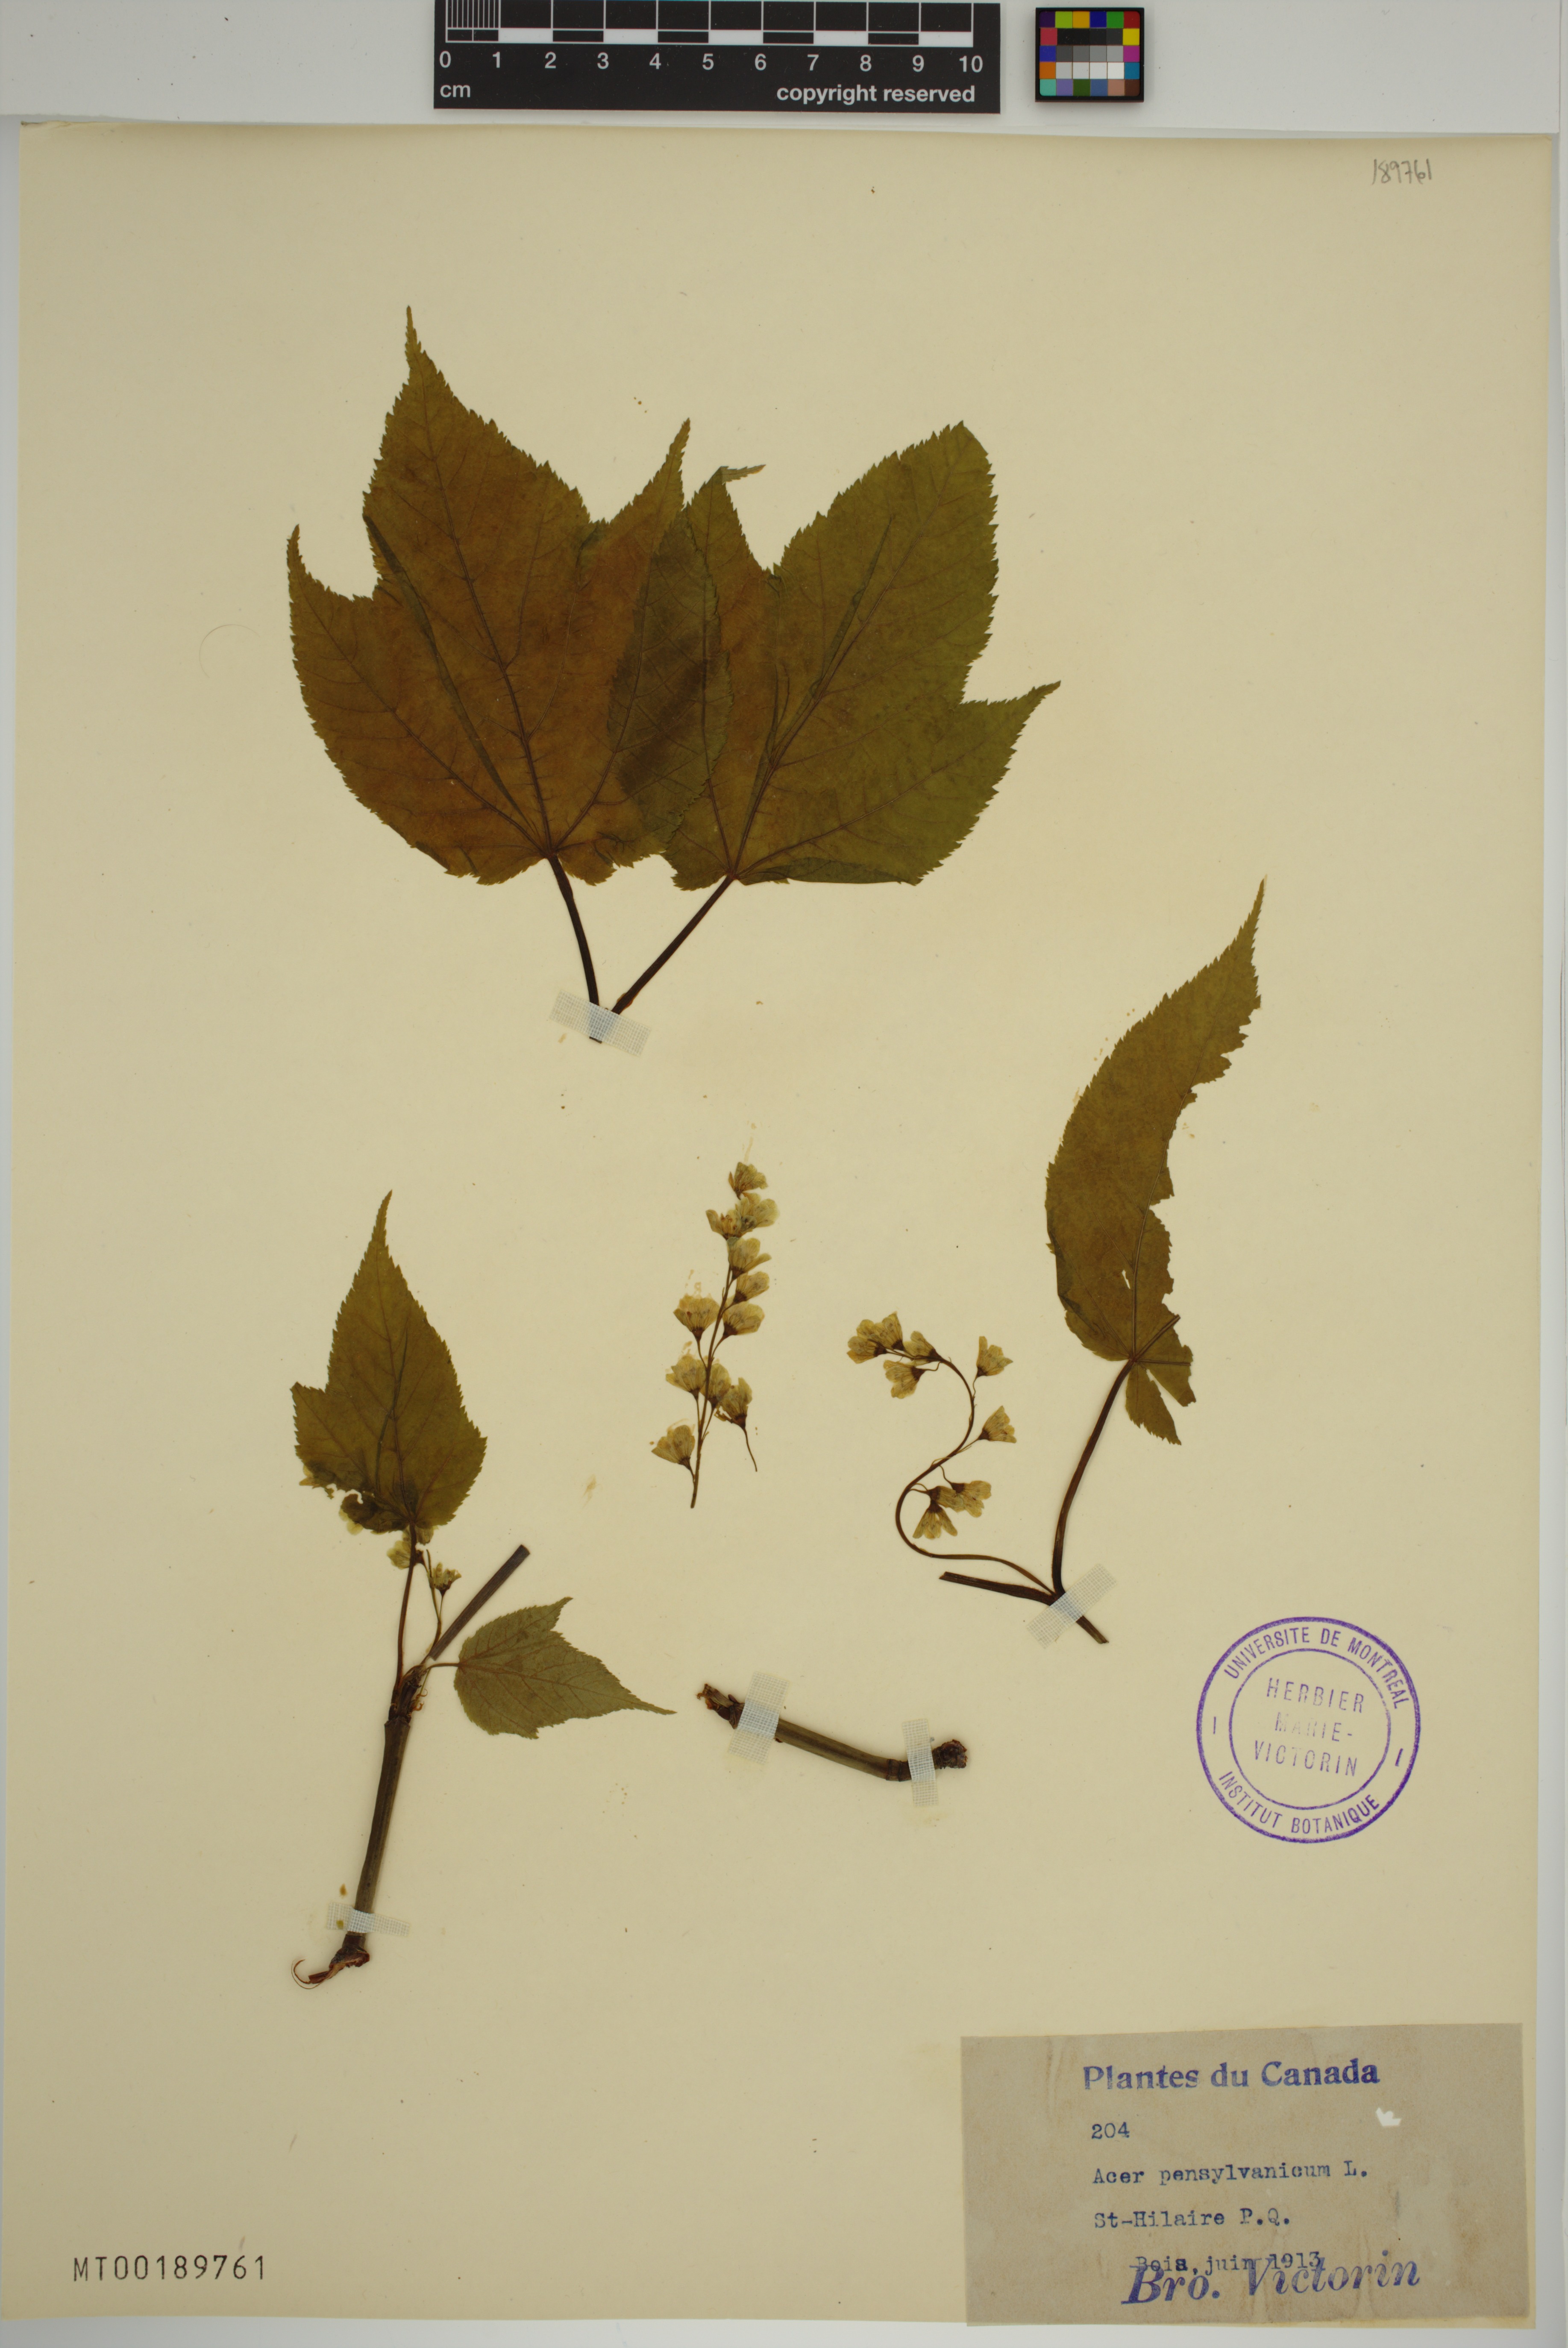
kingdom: Plantae
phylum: Tracheophyta
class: Magnoliopsida
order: Sapindales
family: Sapindaceae
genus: Acer
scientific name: Acer pensylvanicum
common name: Moosewood
